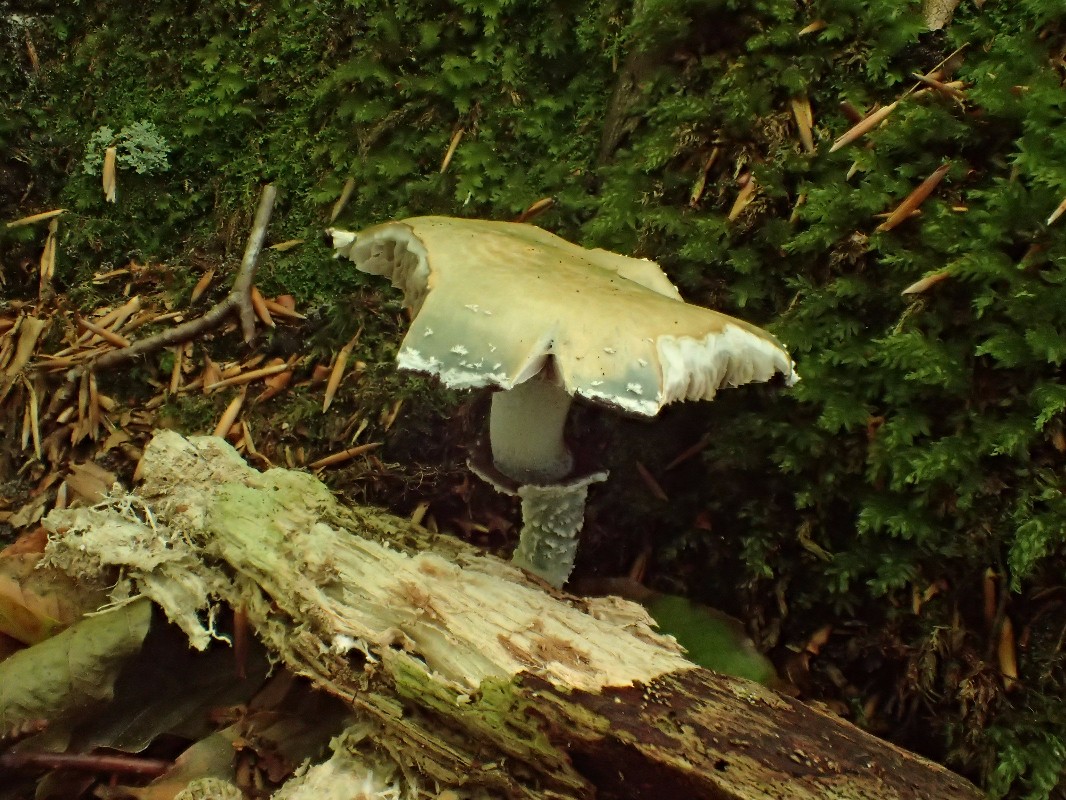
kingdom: Fungi
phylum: Basidiomycota
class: Agaricomycetes
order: Agaricales
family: Strophariaceae
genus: Stropharia
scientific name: Stropharia aeruginosa
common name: spanskgrøn bredblad
